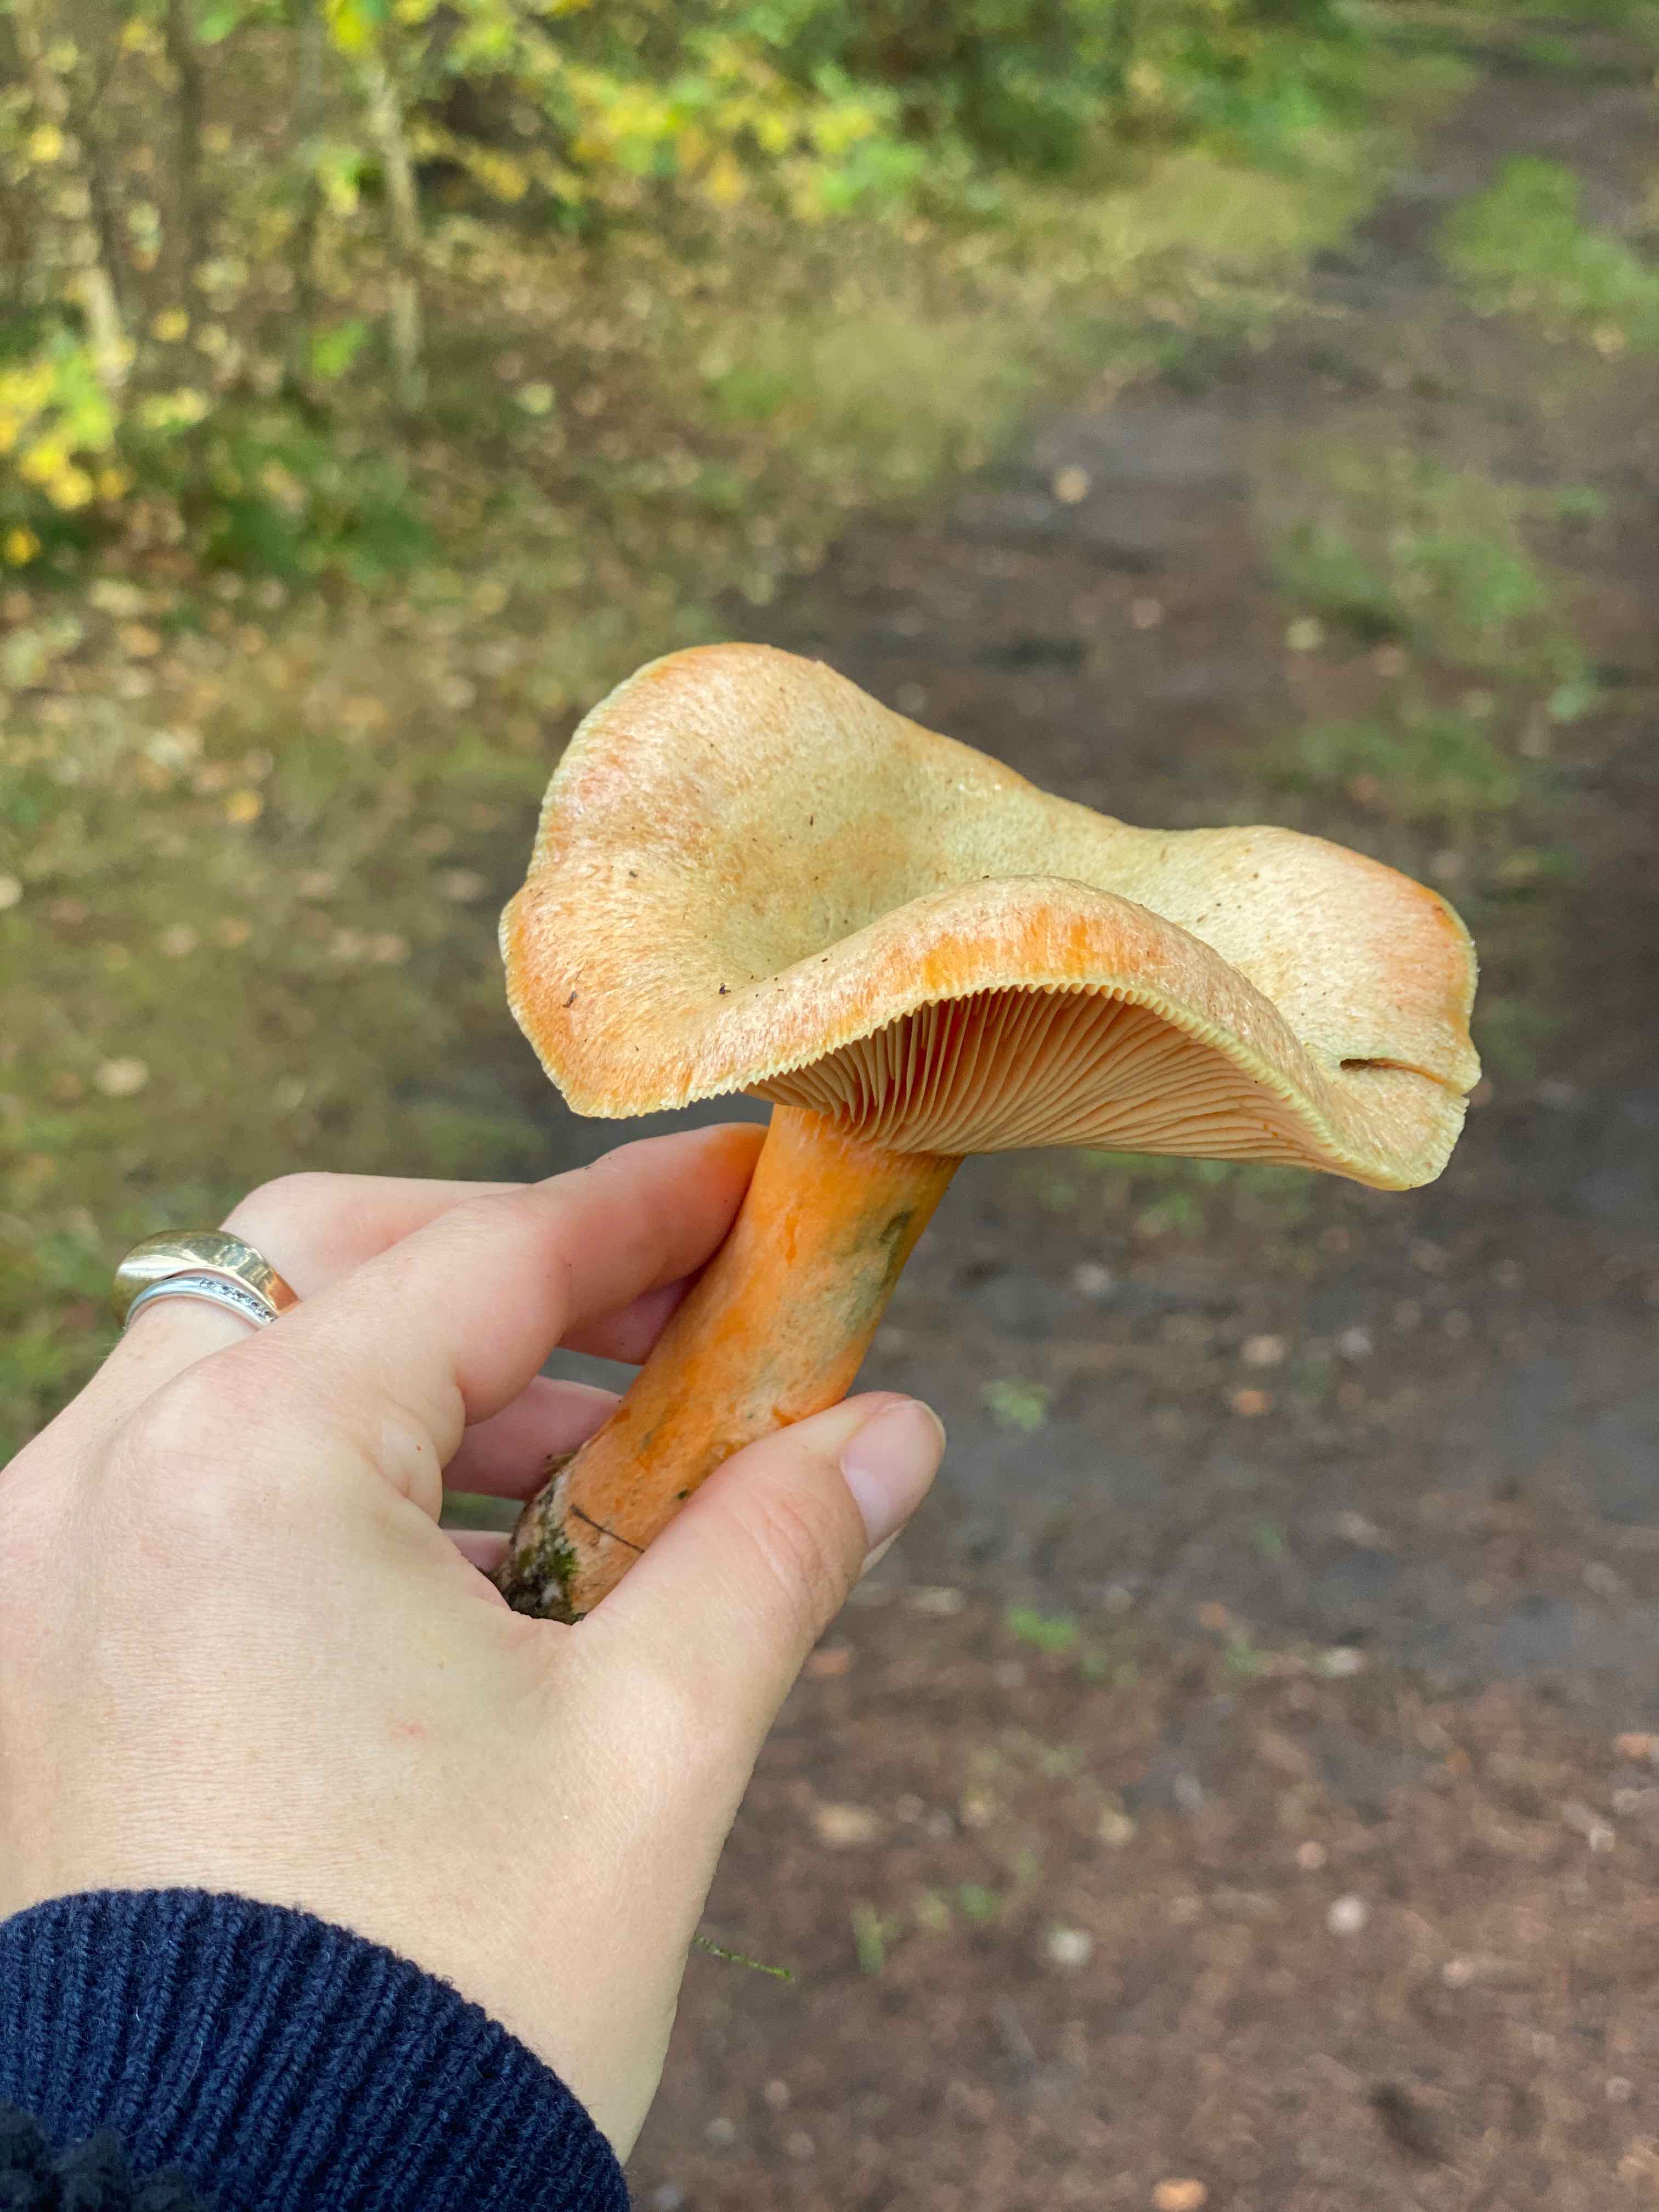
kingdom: Fungi
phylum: Basidiomycota
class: Agaricomycetes
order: Russulales
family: Russulaceae
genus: Lactarius
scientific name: Lactarius deterrimus
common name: gran-mælkehat
